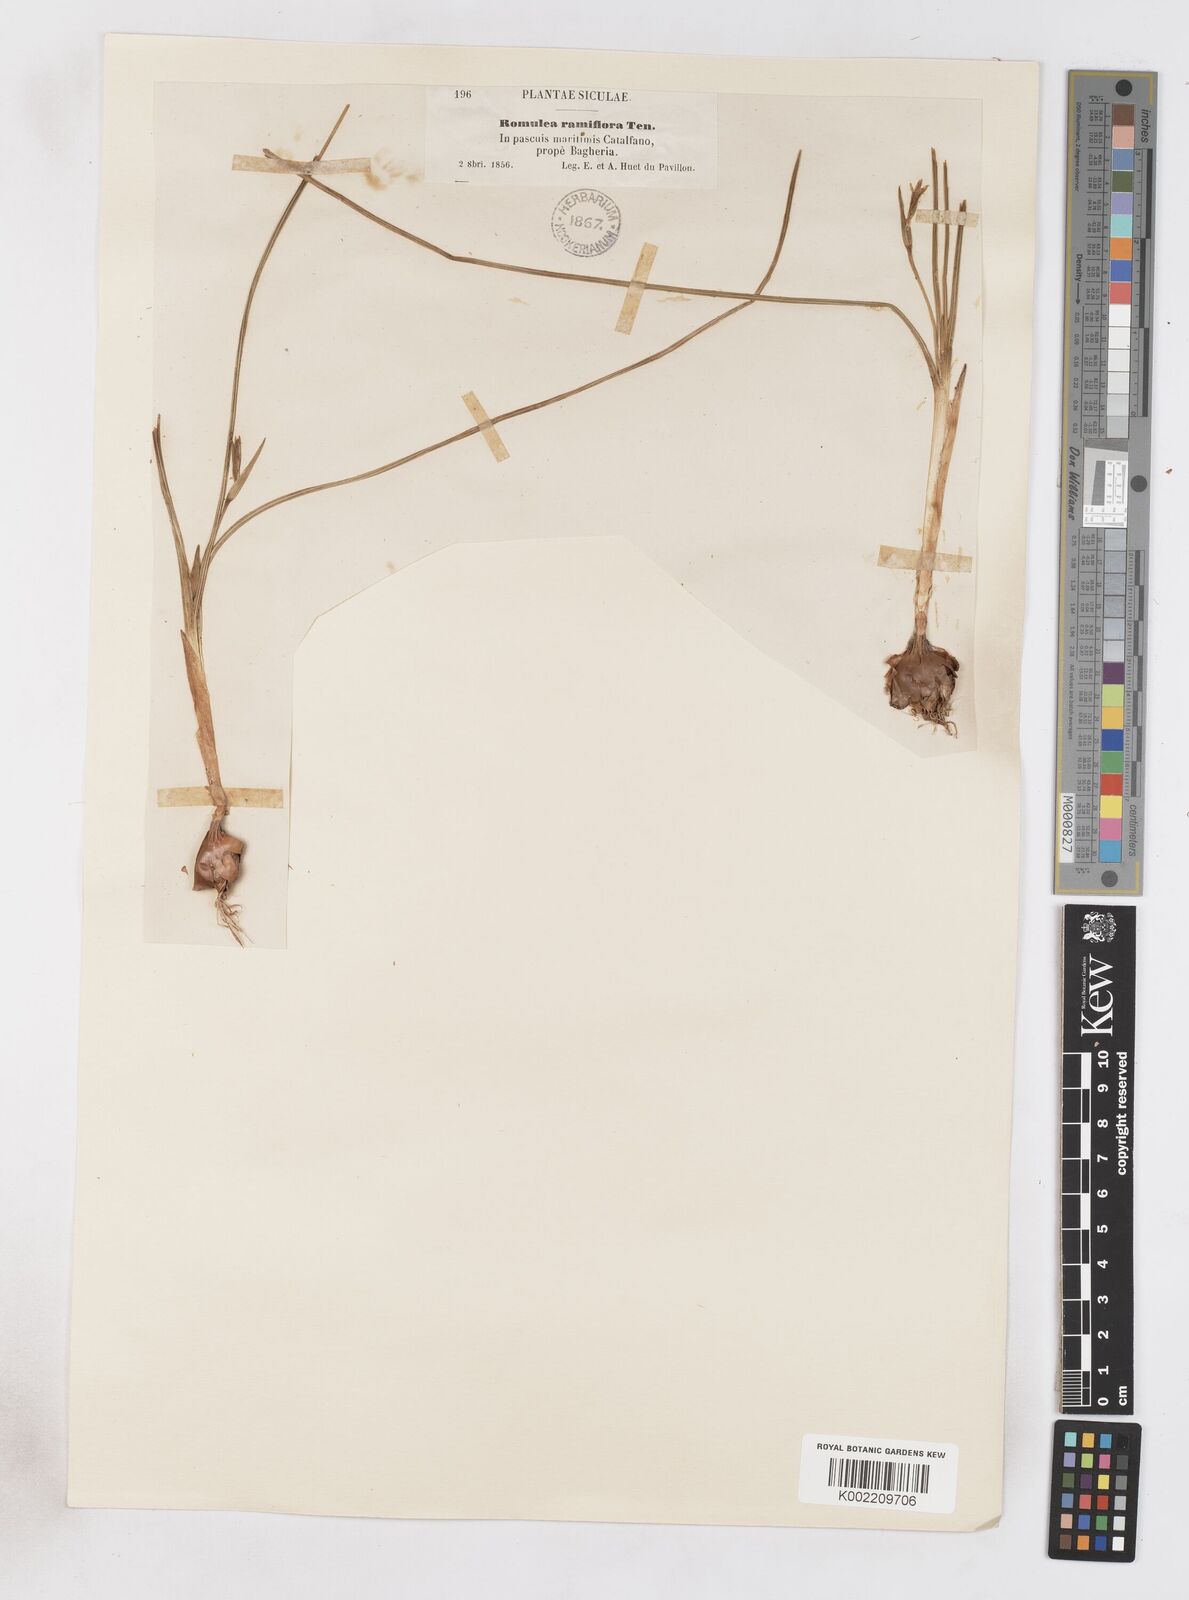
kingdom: Plantae
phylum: Tracheophyta
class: Liliopsida
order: Asparagales
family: Iridaceae
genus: Romulea
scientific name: Romulea ramiflora
